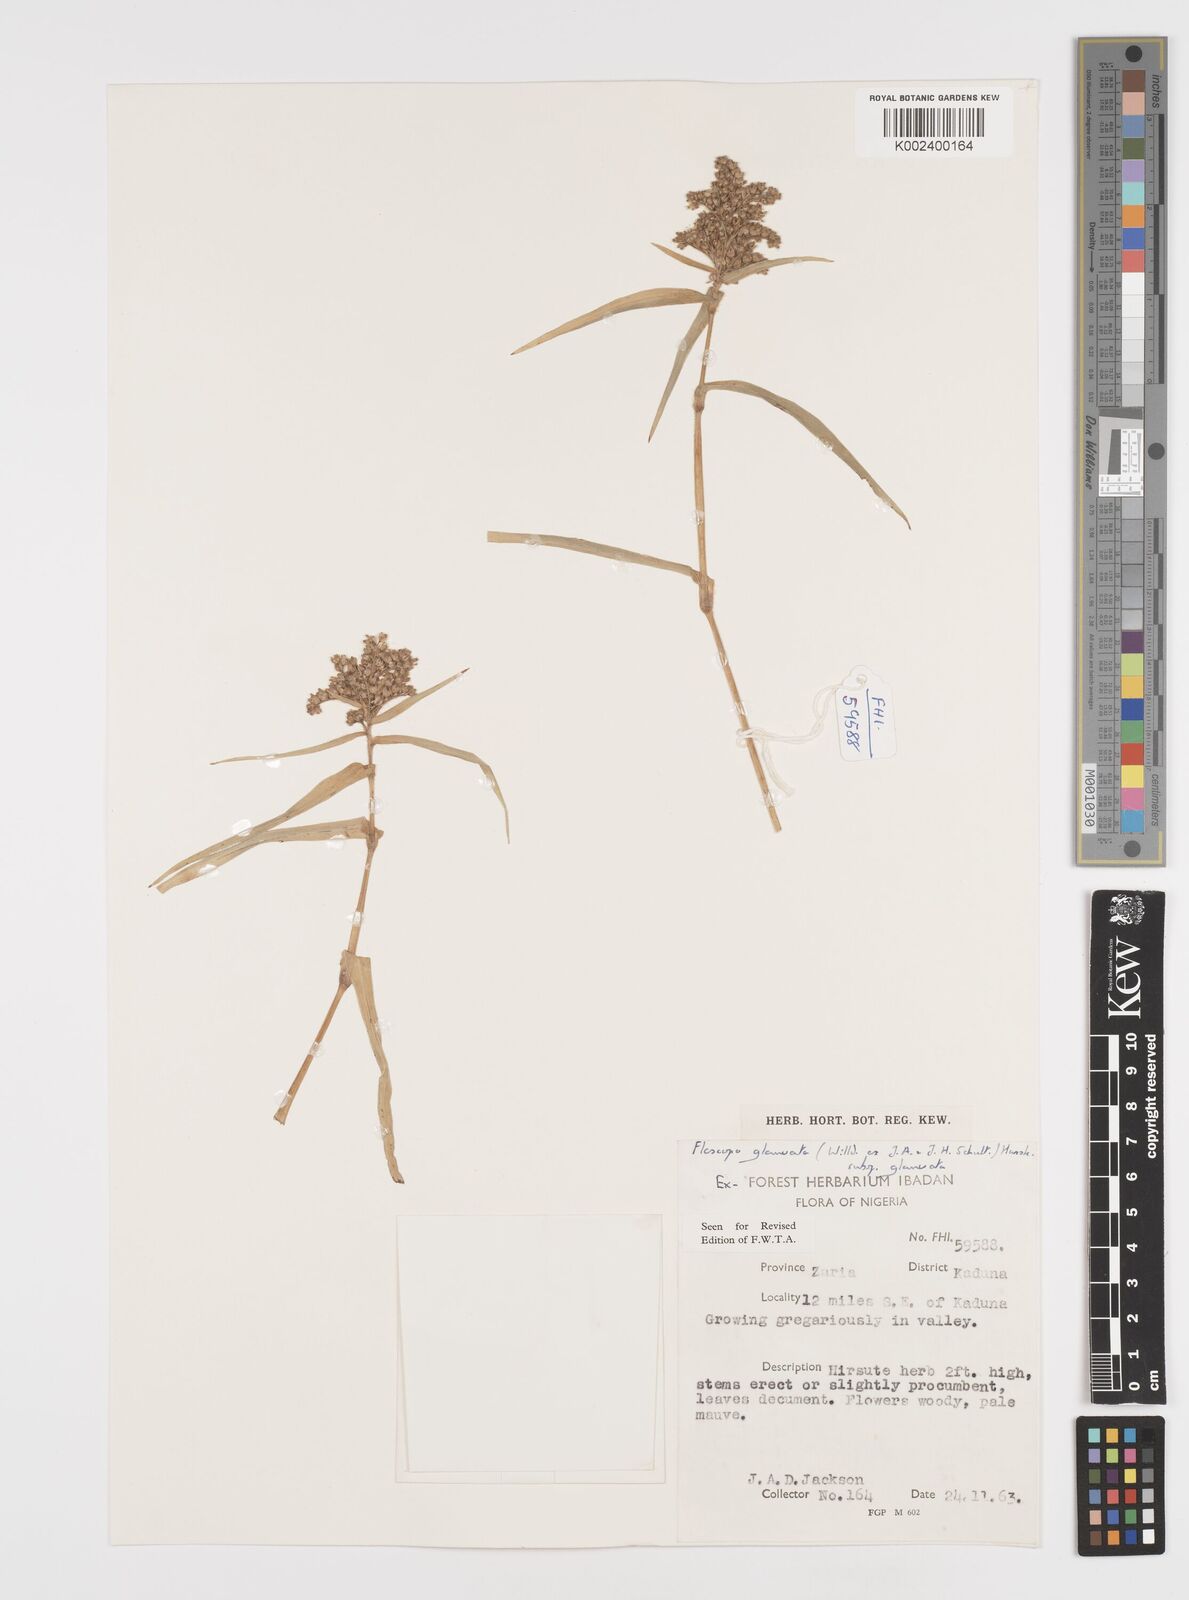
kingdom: Plantae
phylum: Tracheophyta
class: Liliopsida
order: Commelinales
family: Commelinaceae
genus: Floscopa
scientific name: Floscopa glomerata
